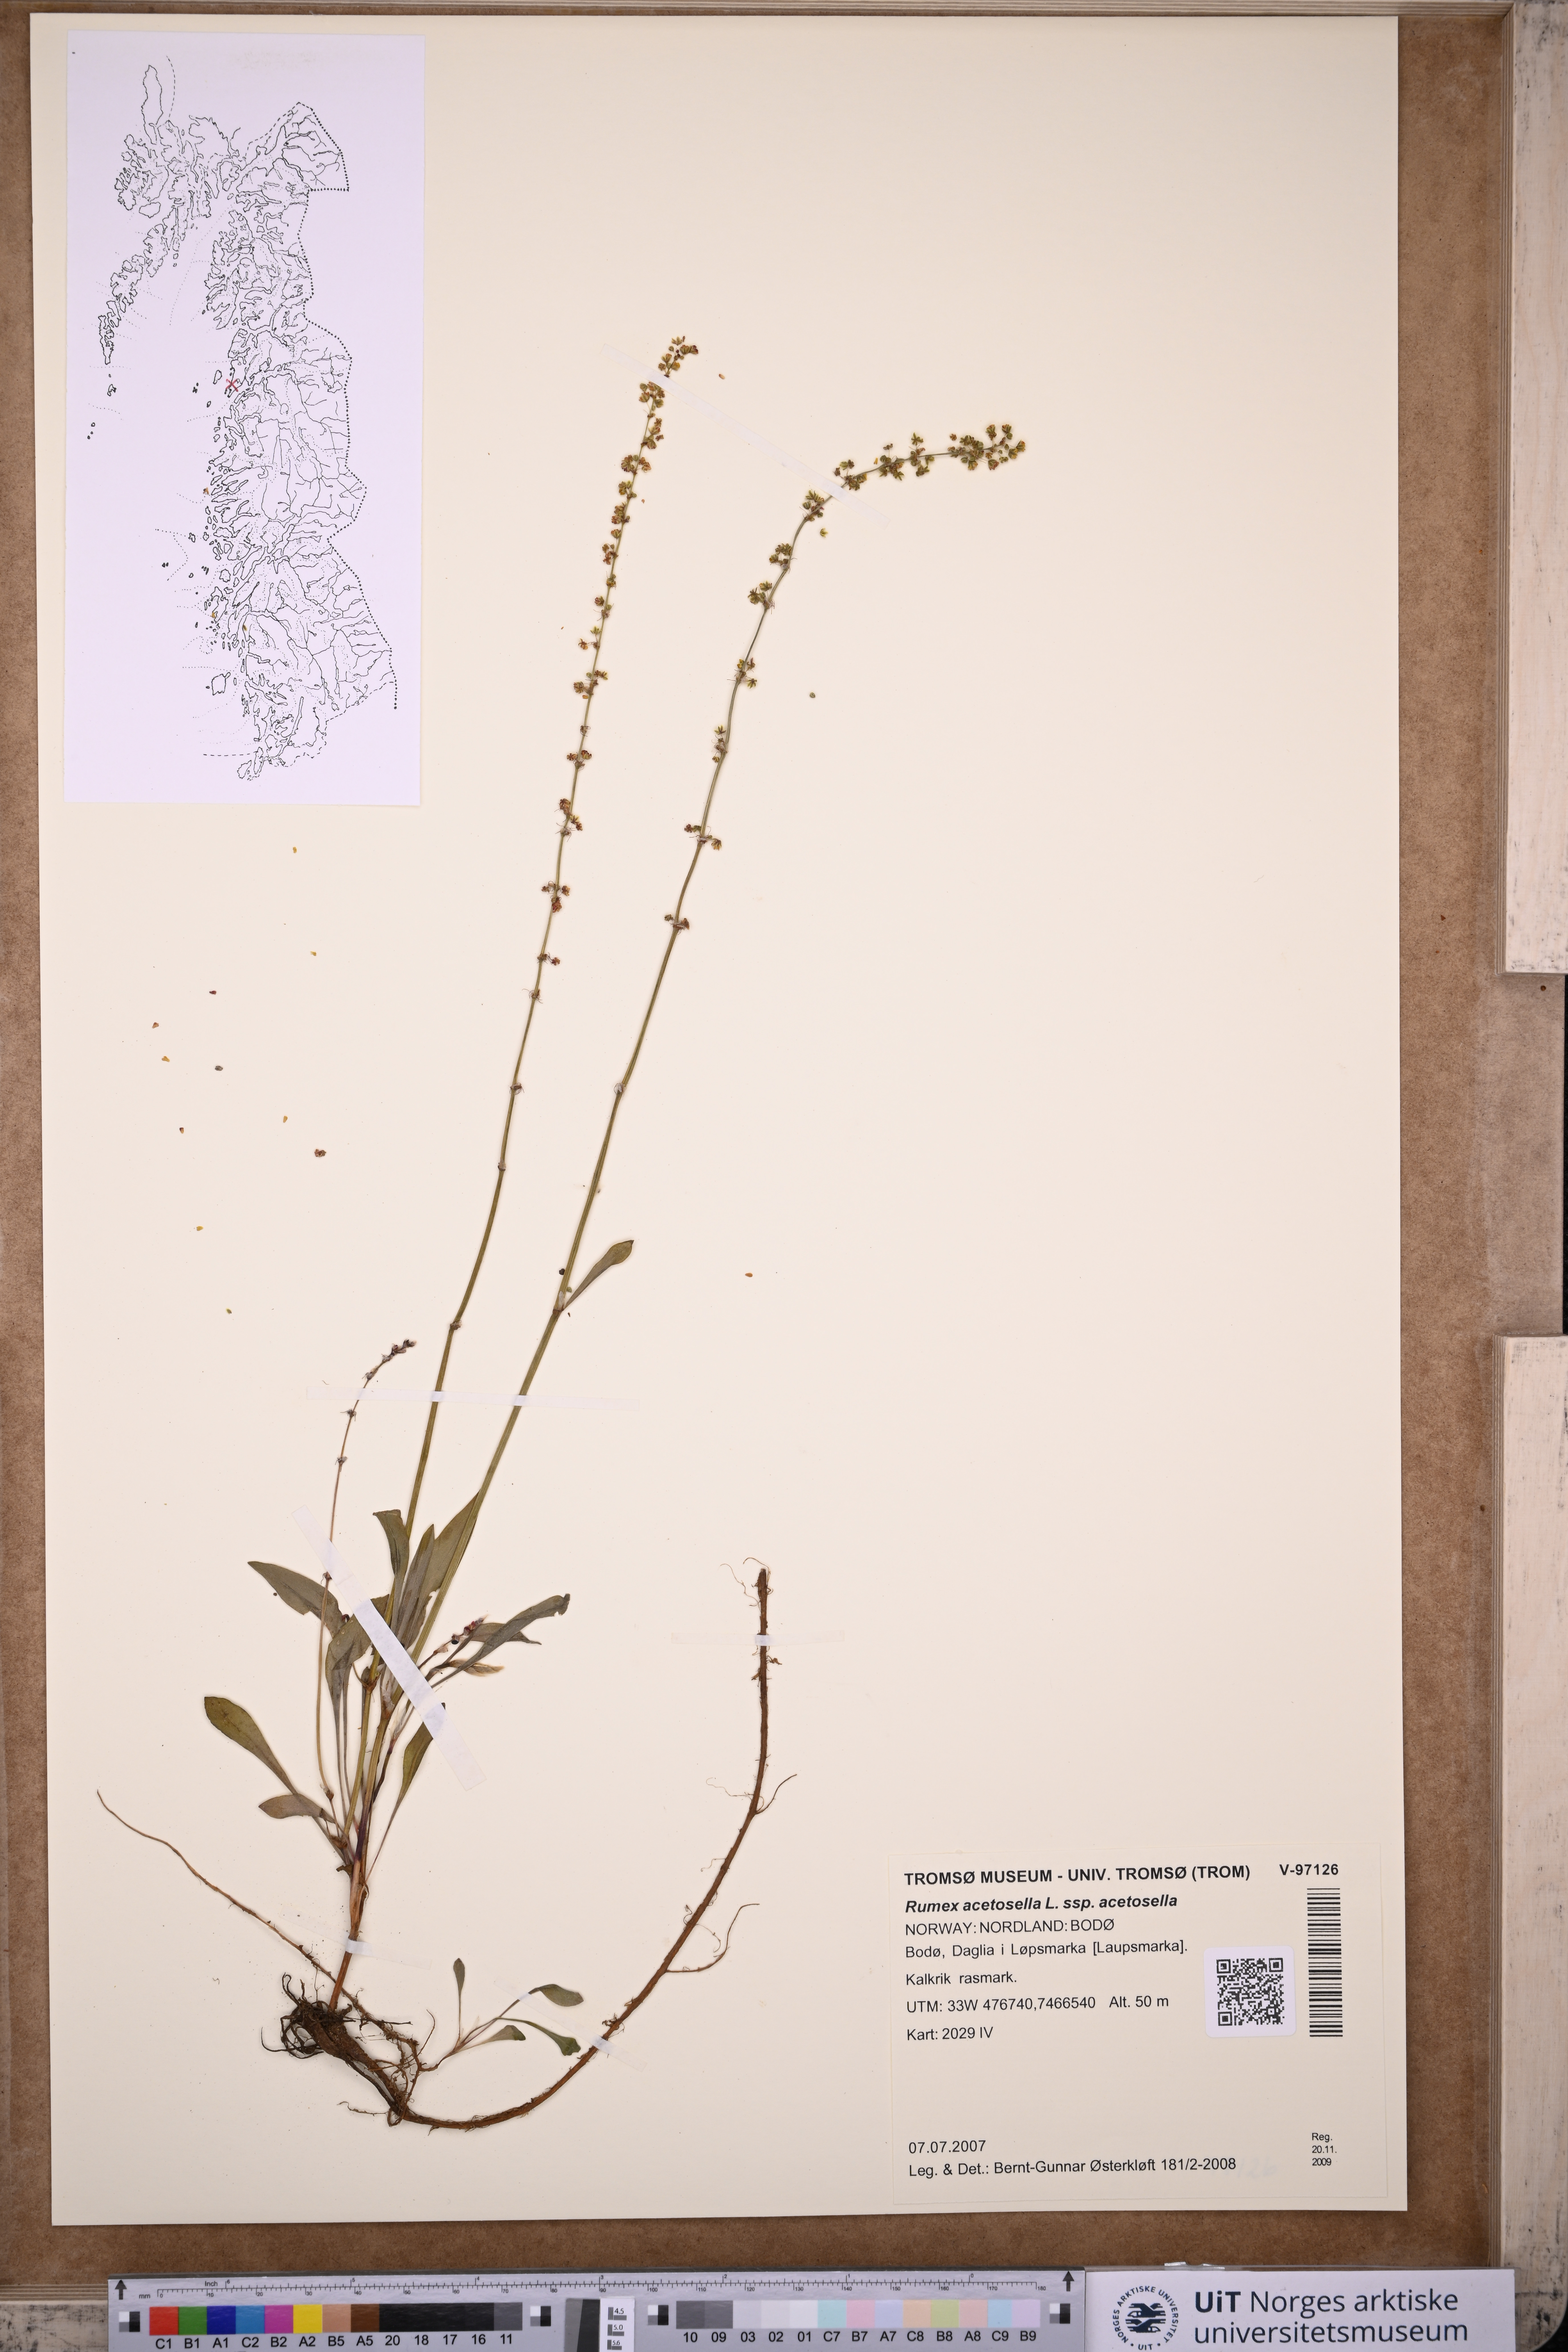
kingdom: Plantae
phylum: Tracheophyta
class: Magnoliopsida
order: Caryophyllales
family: Polygonaceae
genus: Rumex
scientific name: Rumex acetosella
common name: Common sheep sorrel
